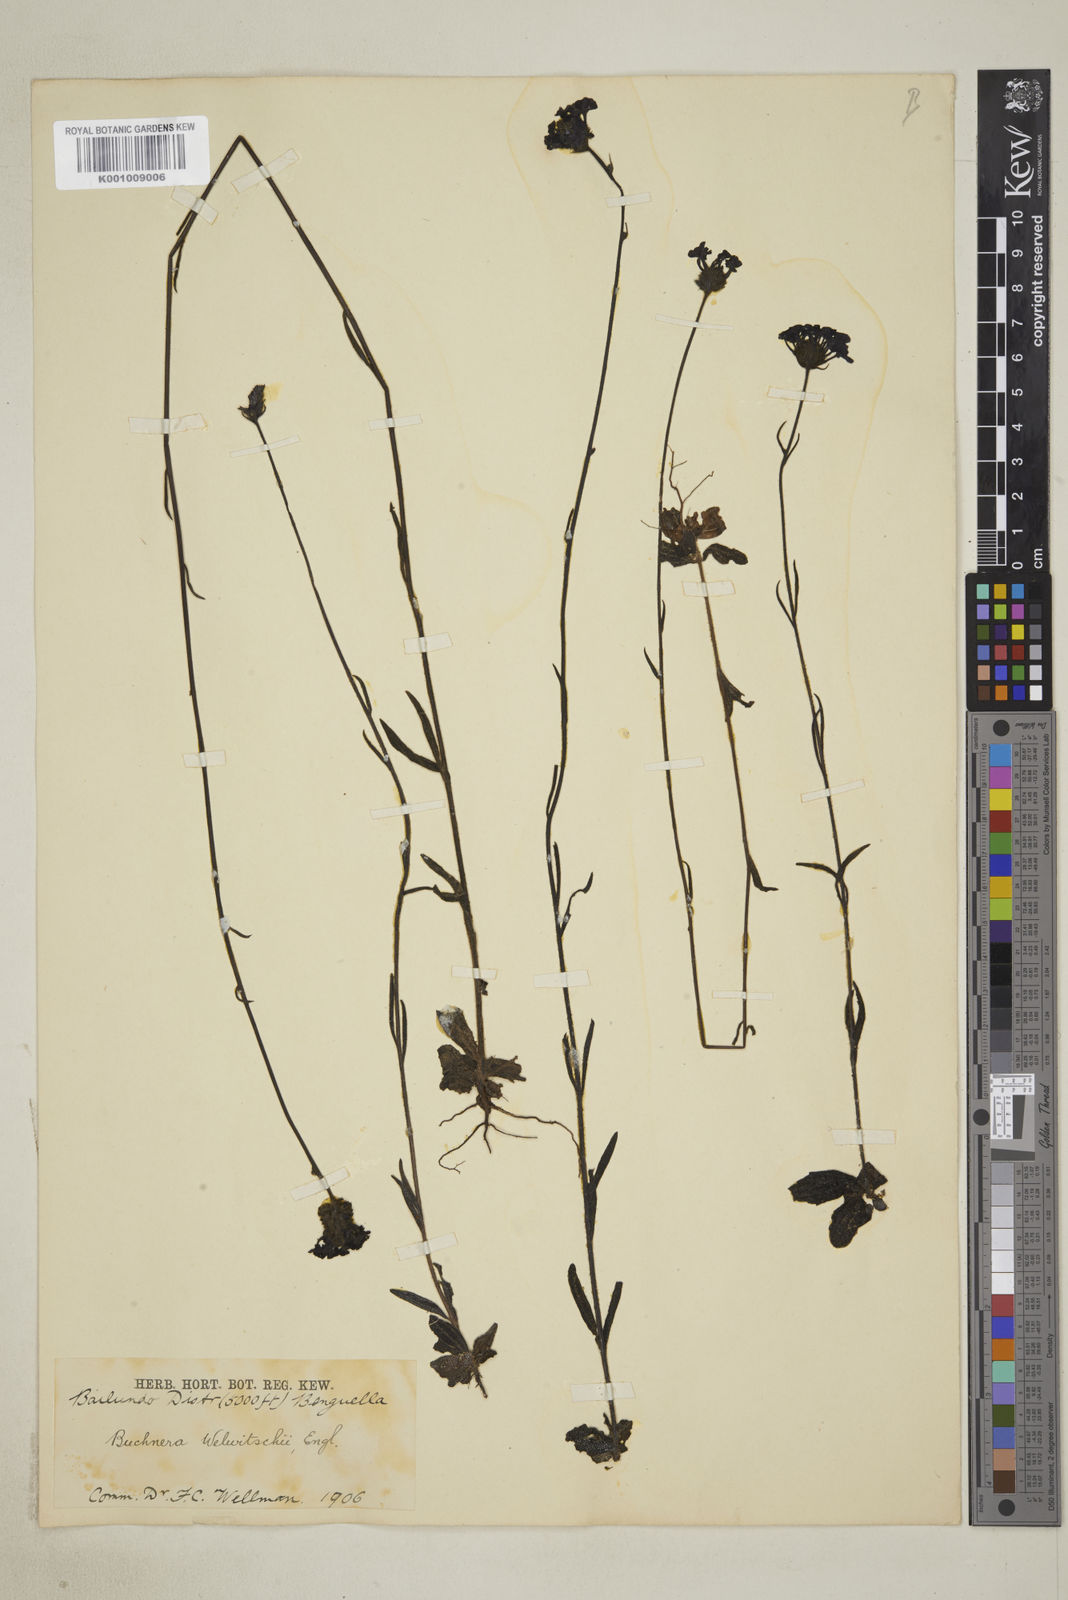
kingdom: Plantae
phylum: Tracheophyta
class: Magnoliopsida
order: Lamiales
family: Orobanchaceae
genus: Buchnera
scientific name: Buchnera welwitschii
